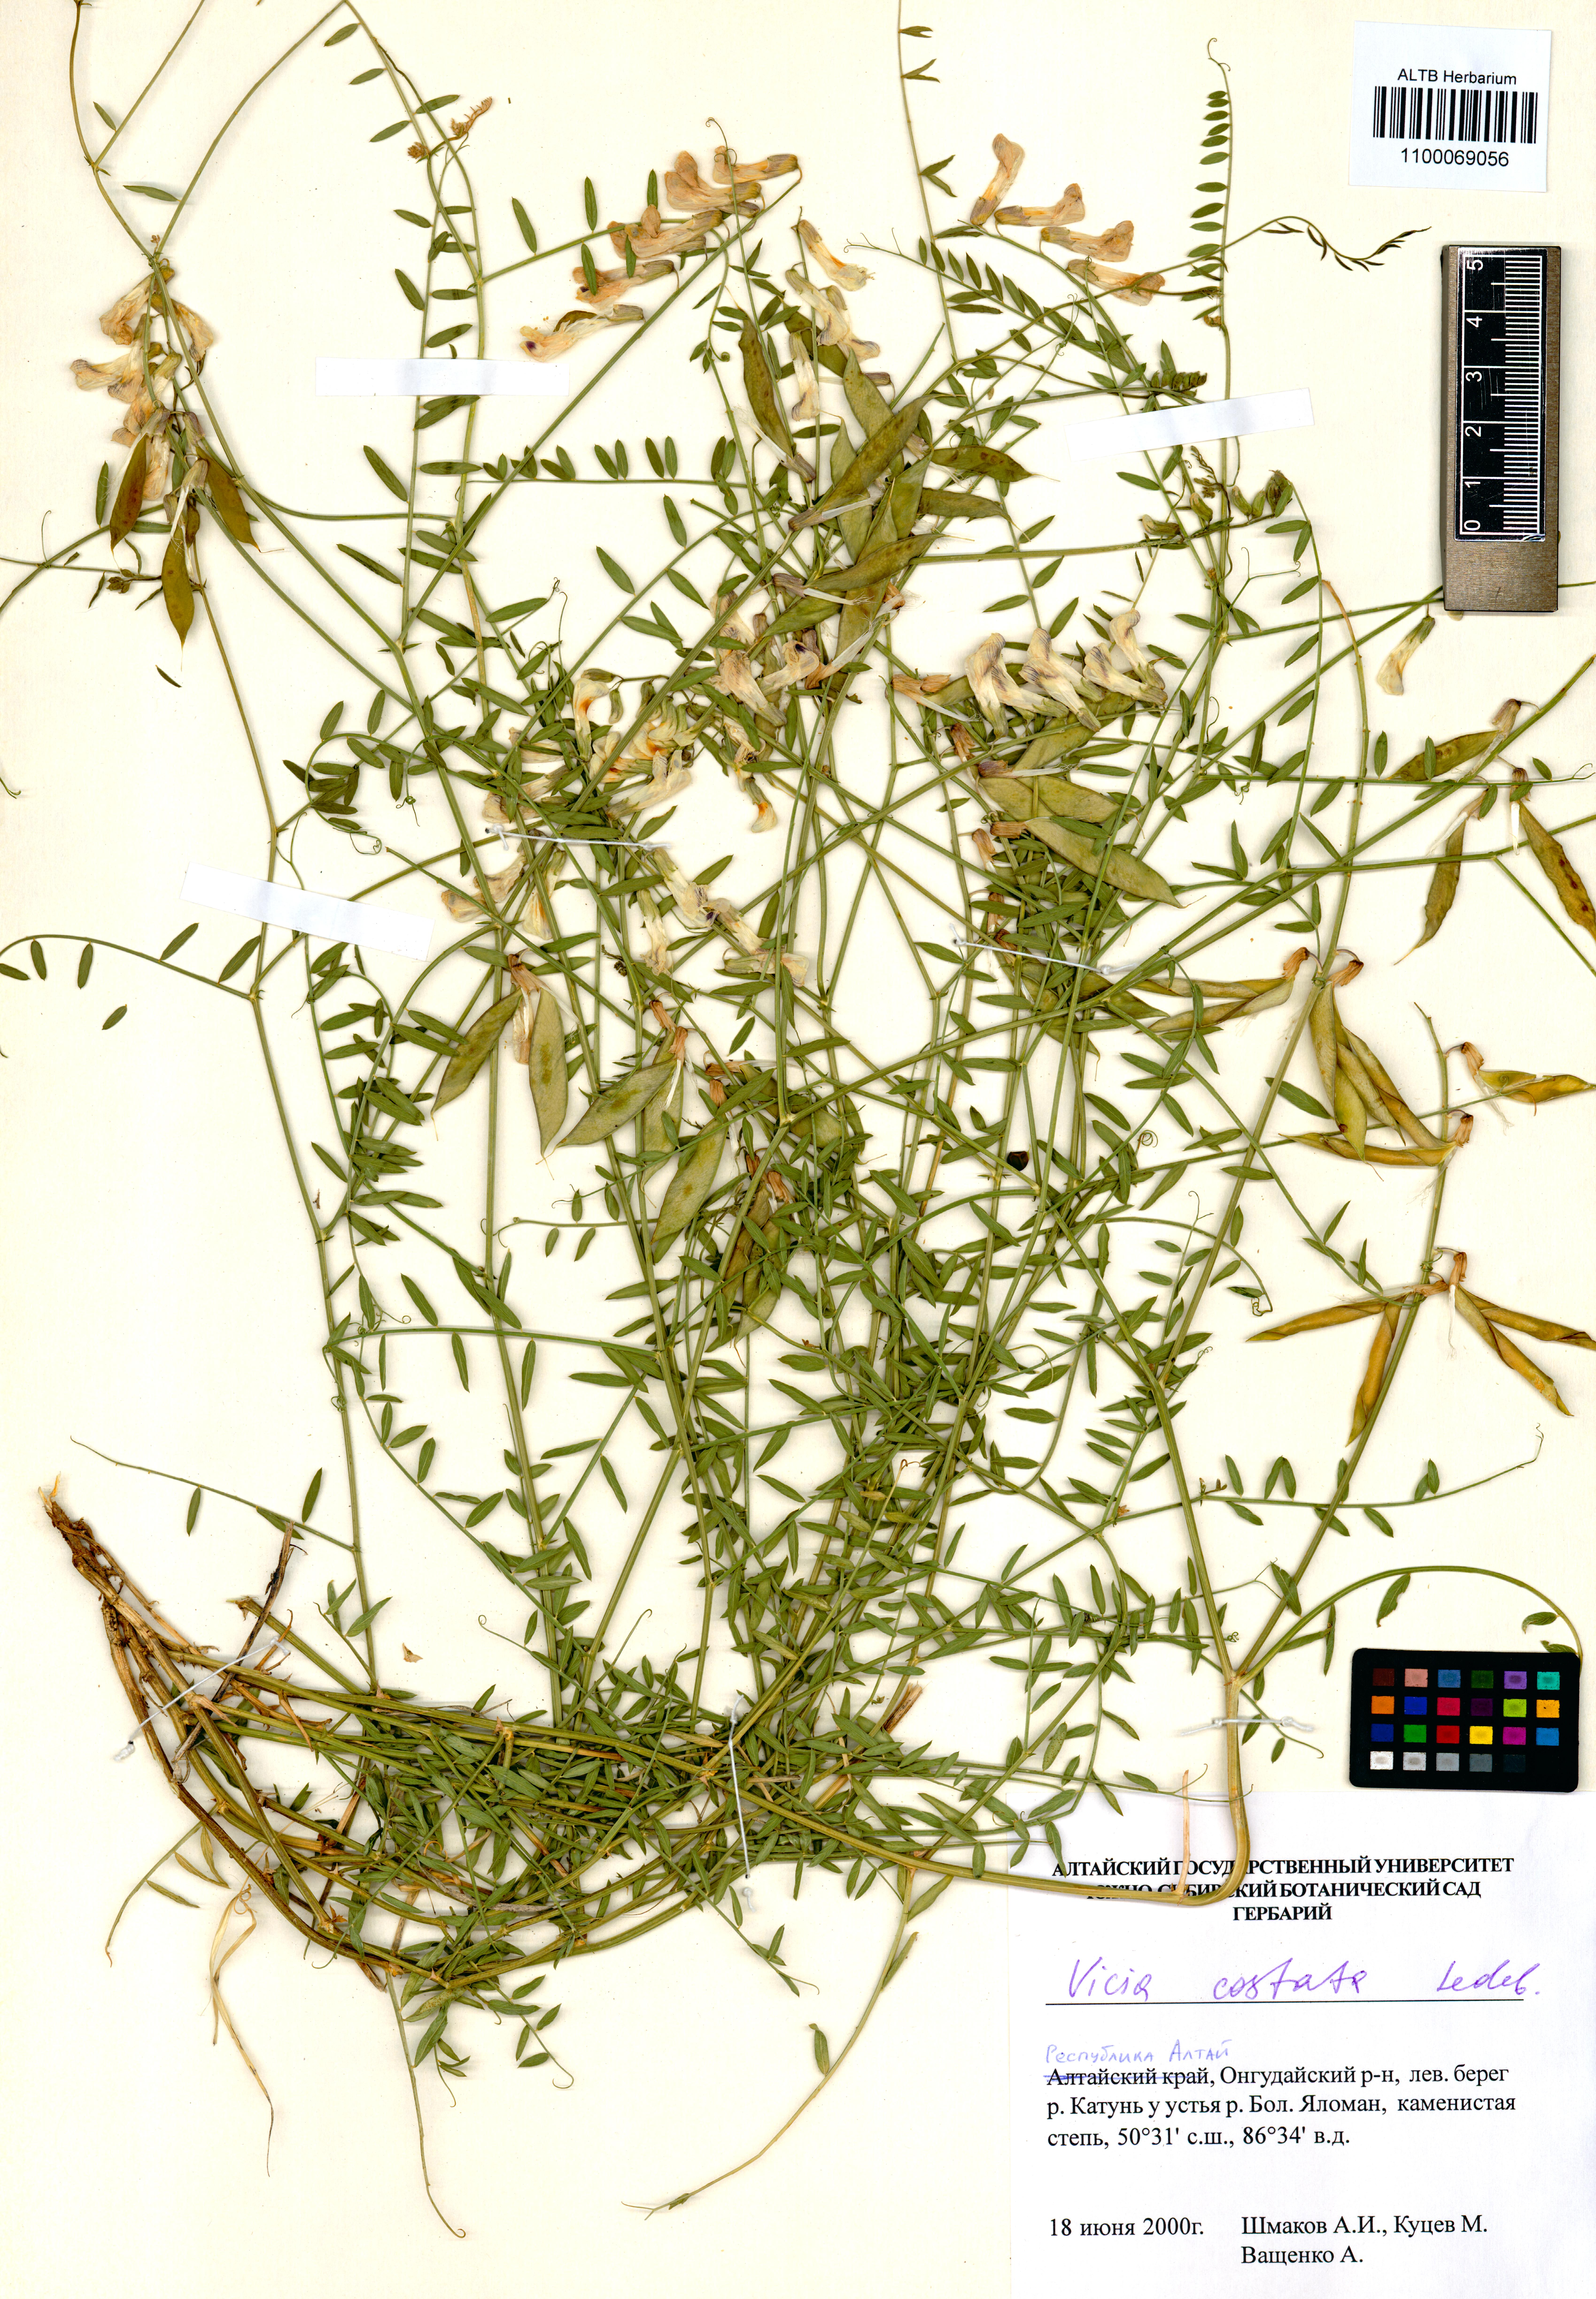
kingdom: Plantae
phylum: Tracheophyta
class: Magnoliopsida
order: Fabales
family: Fabaceae
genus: Vicia
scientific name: Vicia costata
